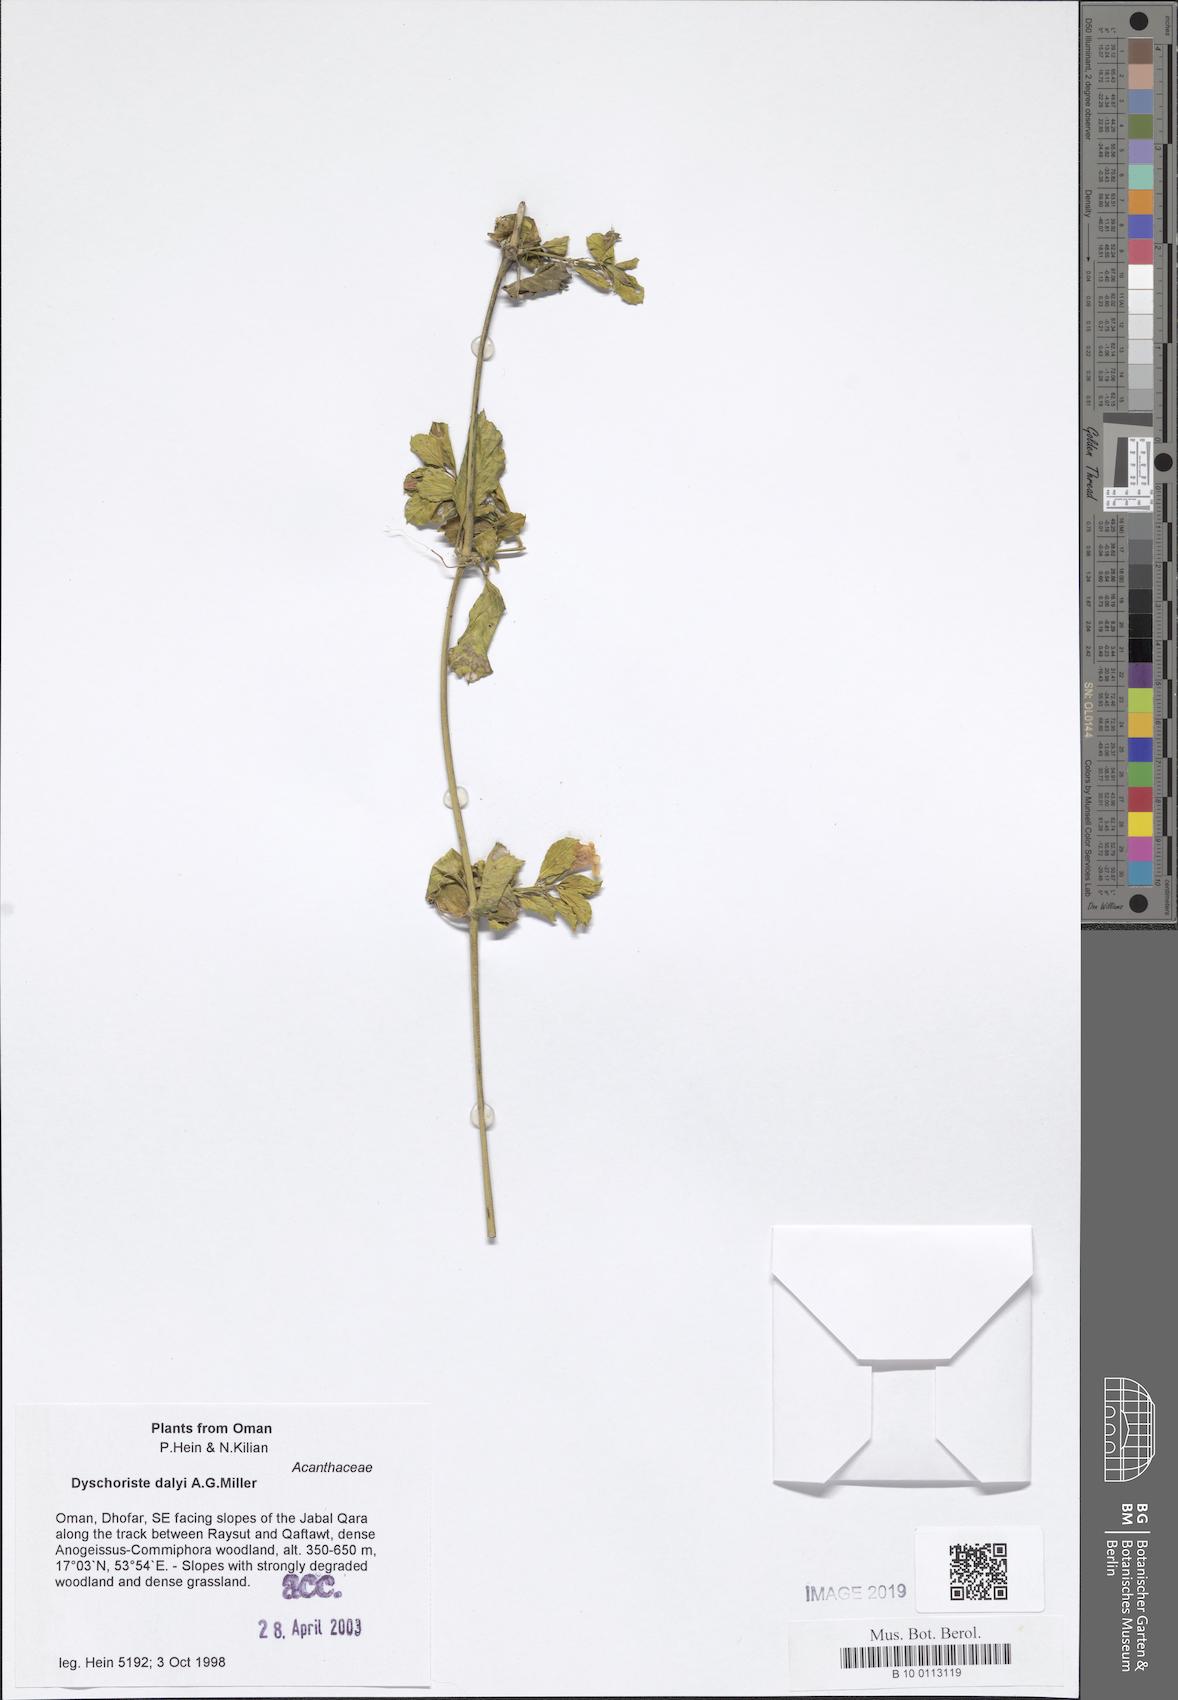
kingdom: Plantae
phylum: Tracheophyta
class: Magnoliopsida
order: Lamiales
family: Acanthaceae
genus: Dyschoriste
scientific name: Dyschoriste dalyi
